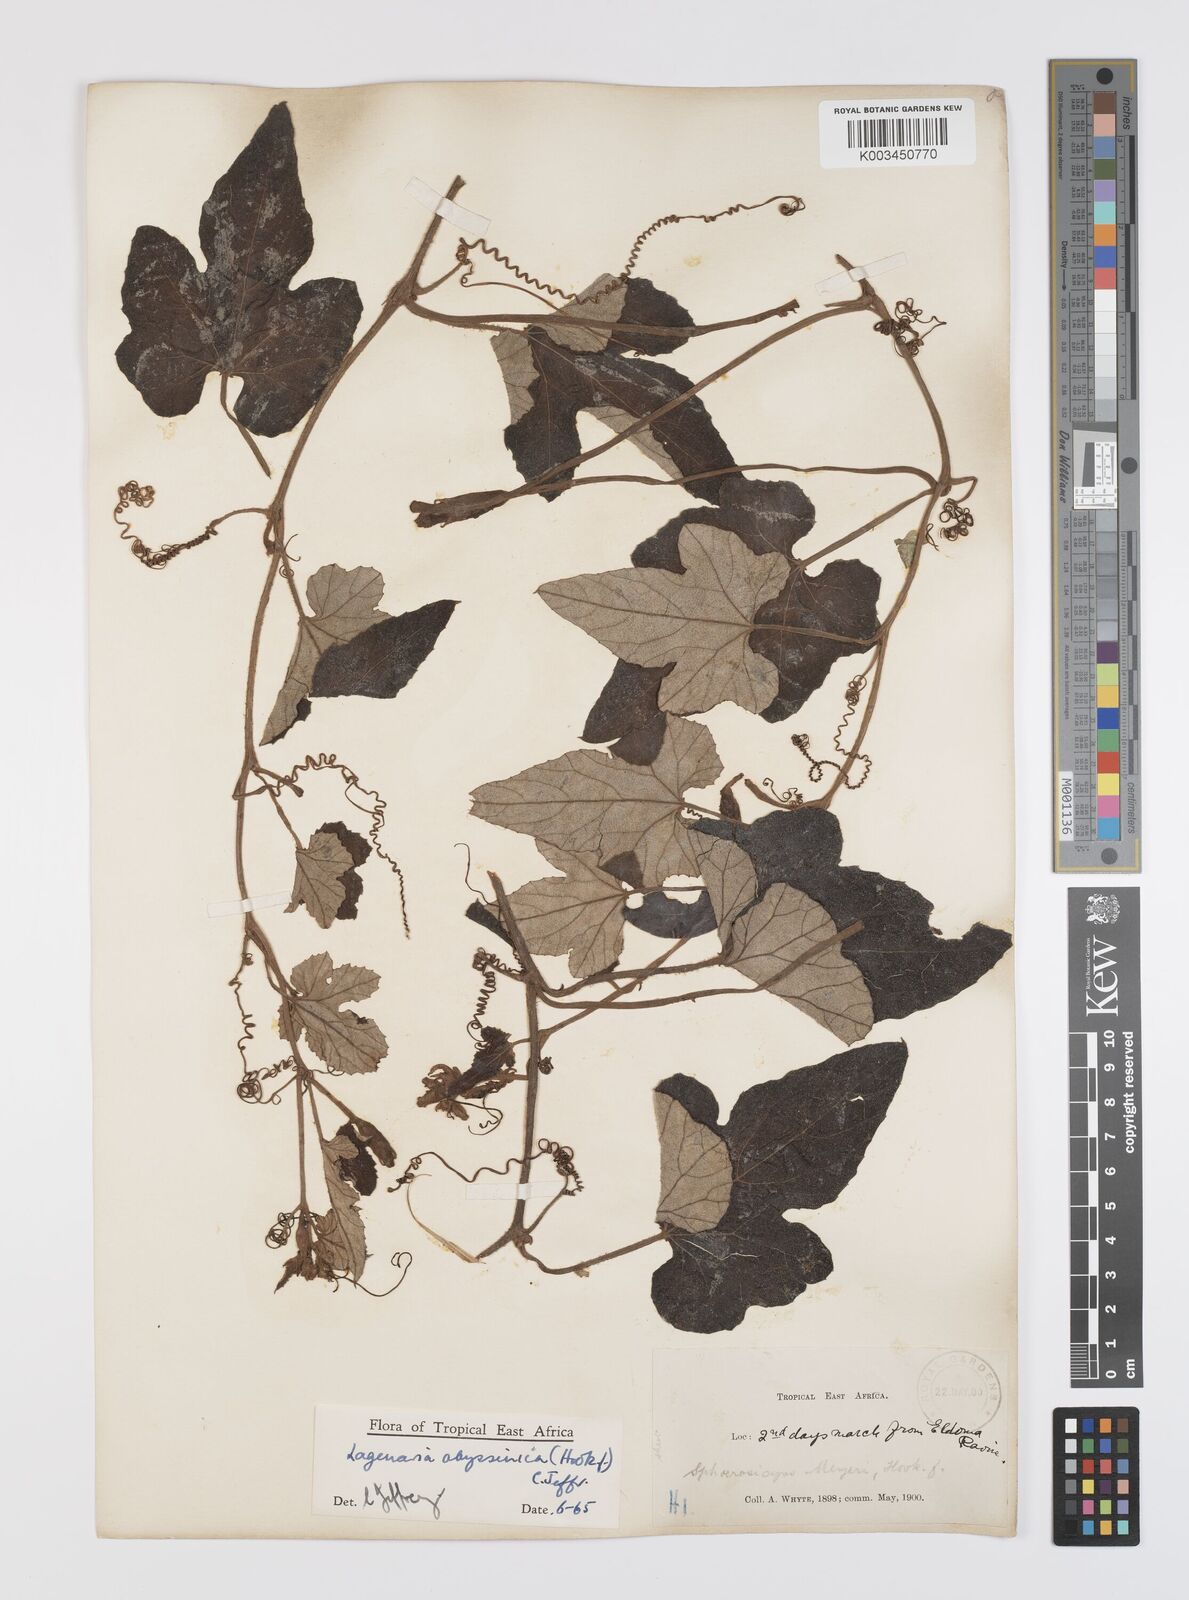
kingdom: Plantae
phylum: Tracheophyta
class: Magnoliopsida
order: Cucurbitales
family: Cucurbitaceae
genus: Lagenaria
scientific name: Lagenaria abyssinica
